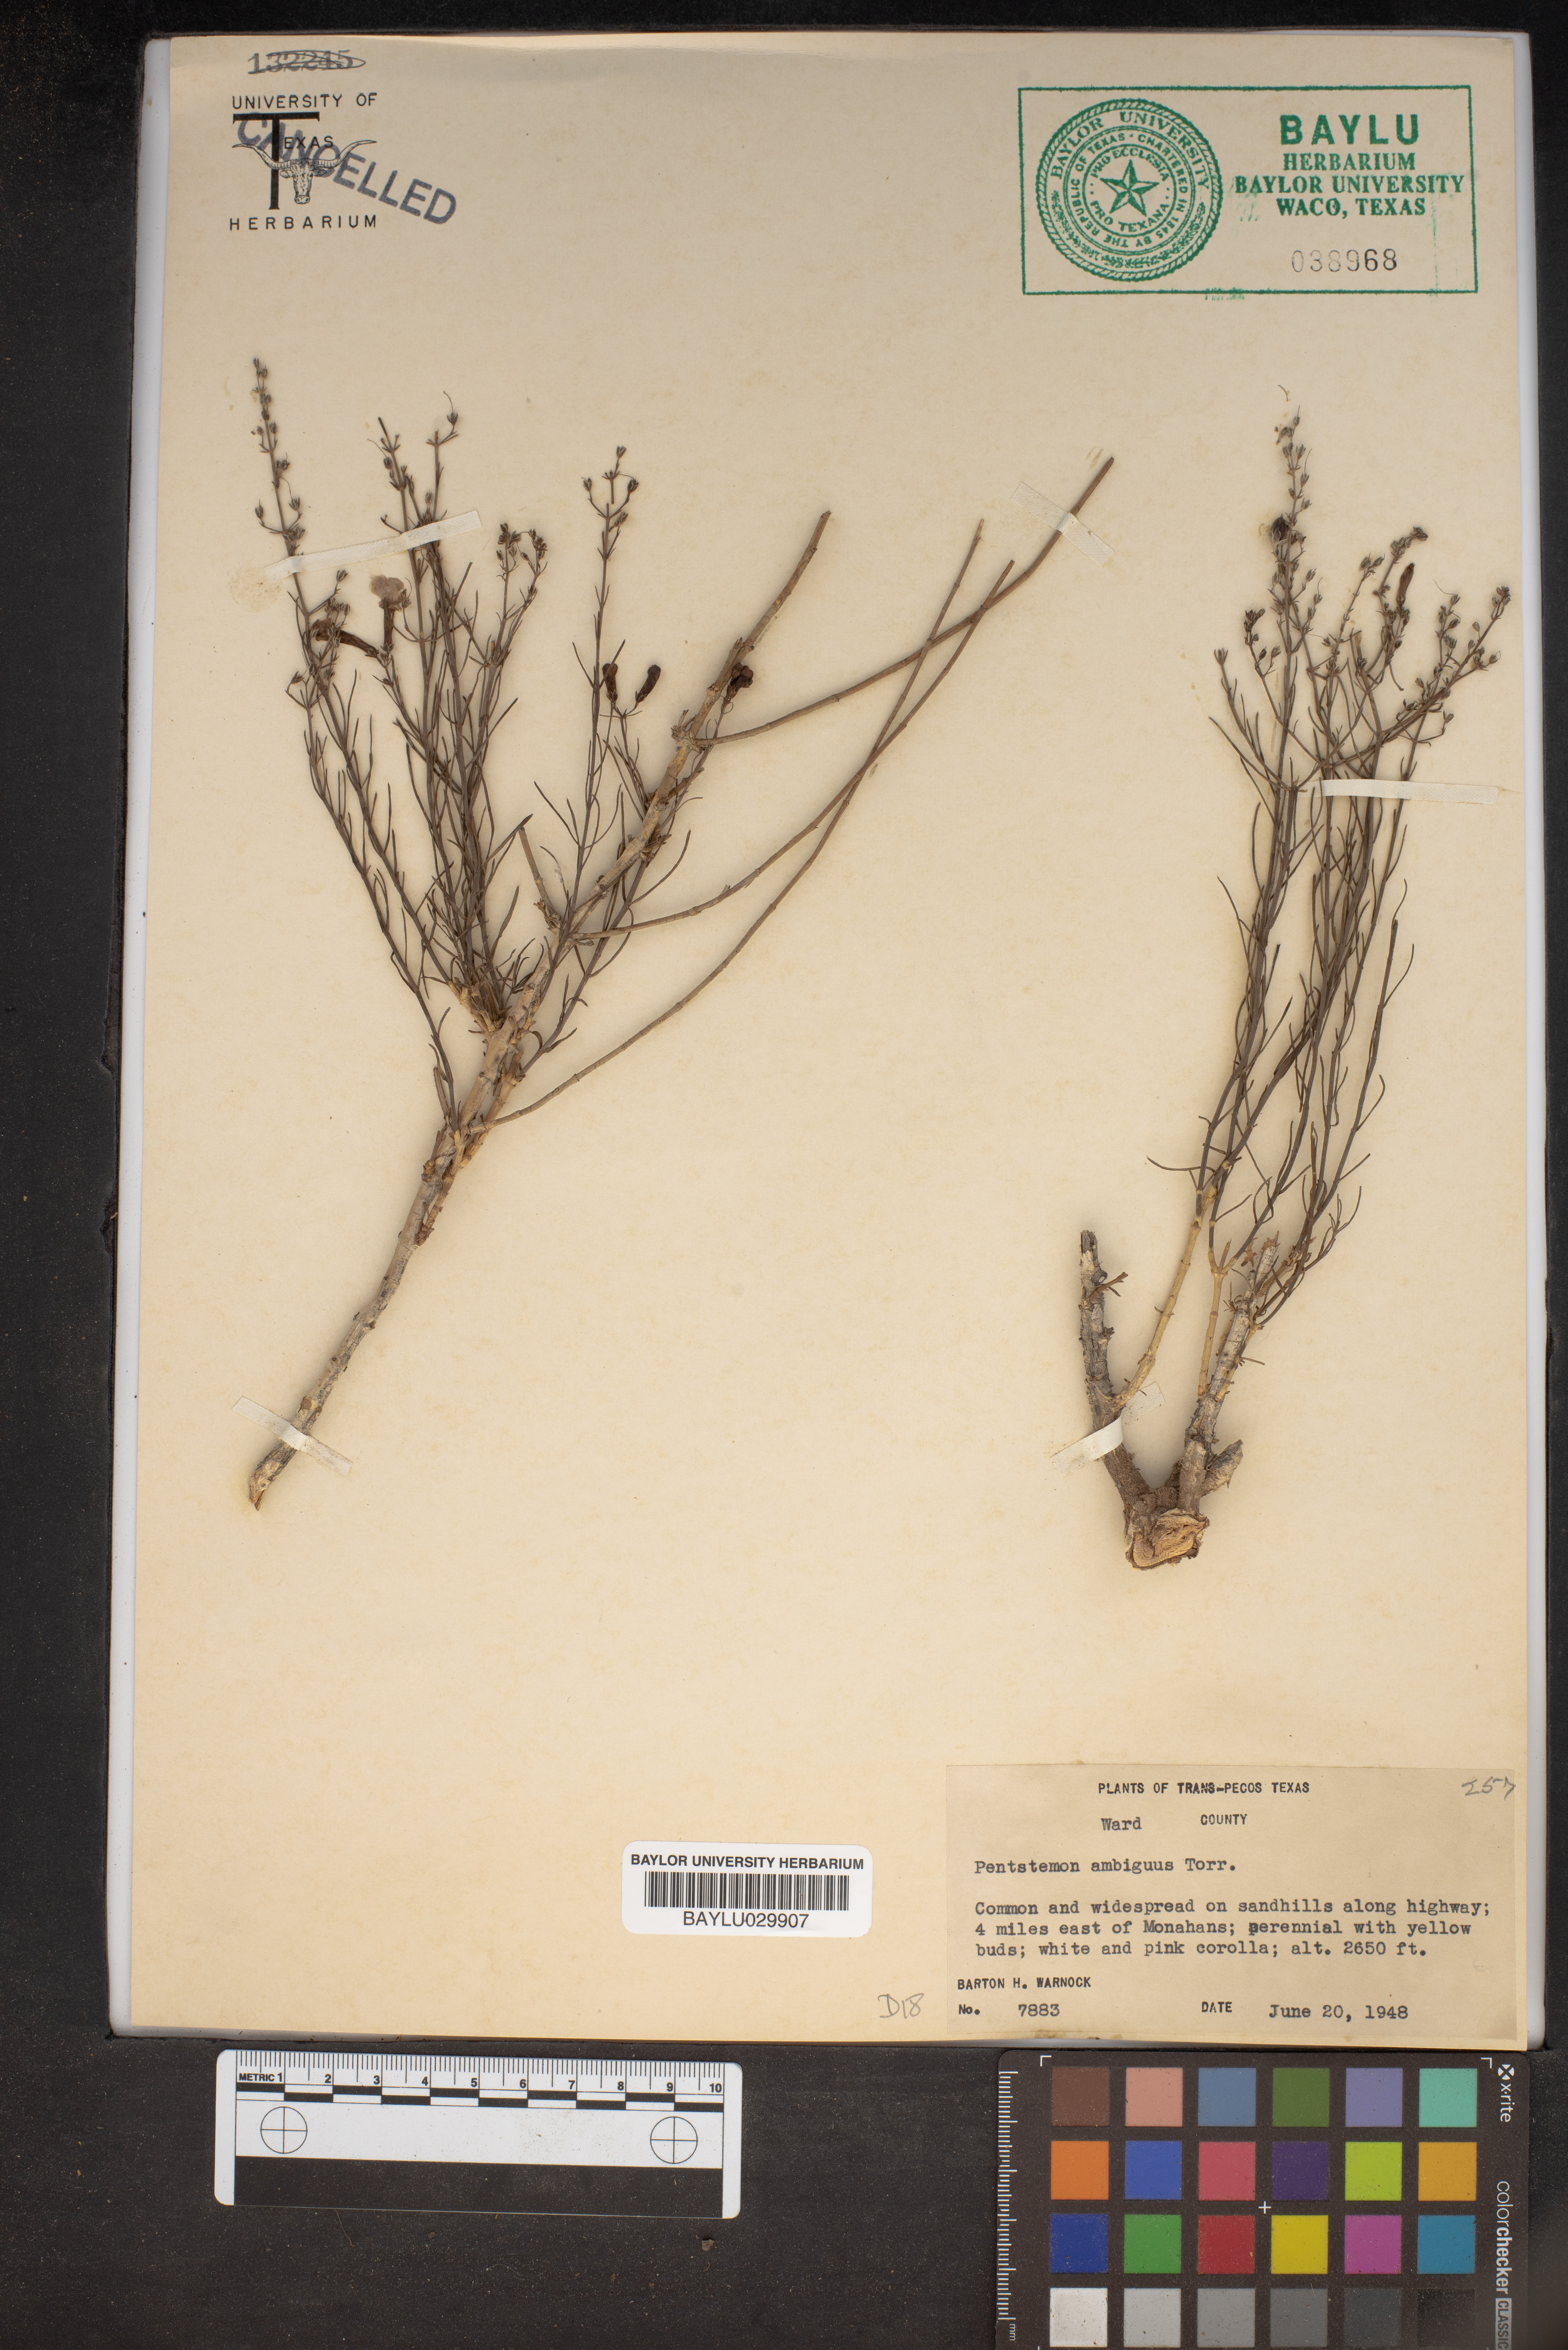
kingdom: Plantae
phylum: Tracheophyta
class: Magnoliopsida
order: Lamiales
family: Plantaginaceae
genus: Penstemon
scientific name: Penstemon ambiguus
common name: Bush penstemon
